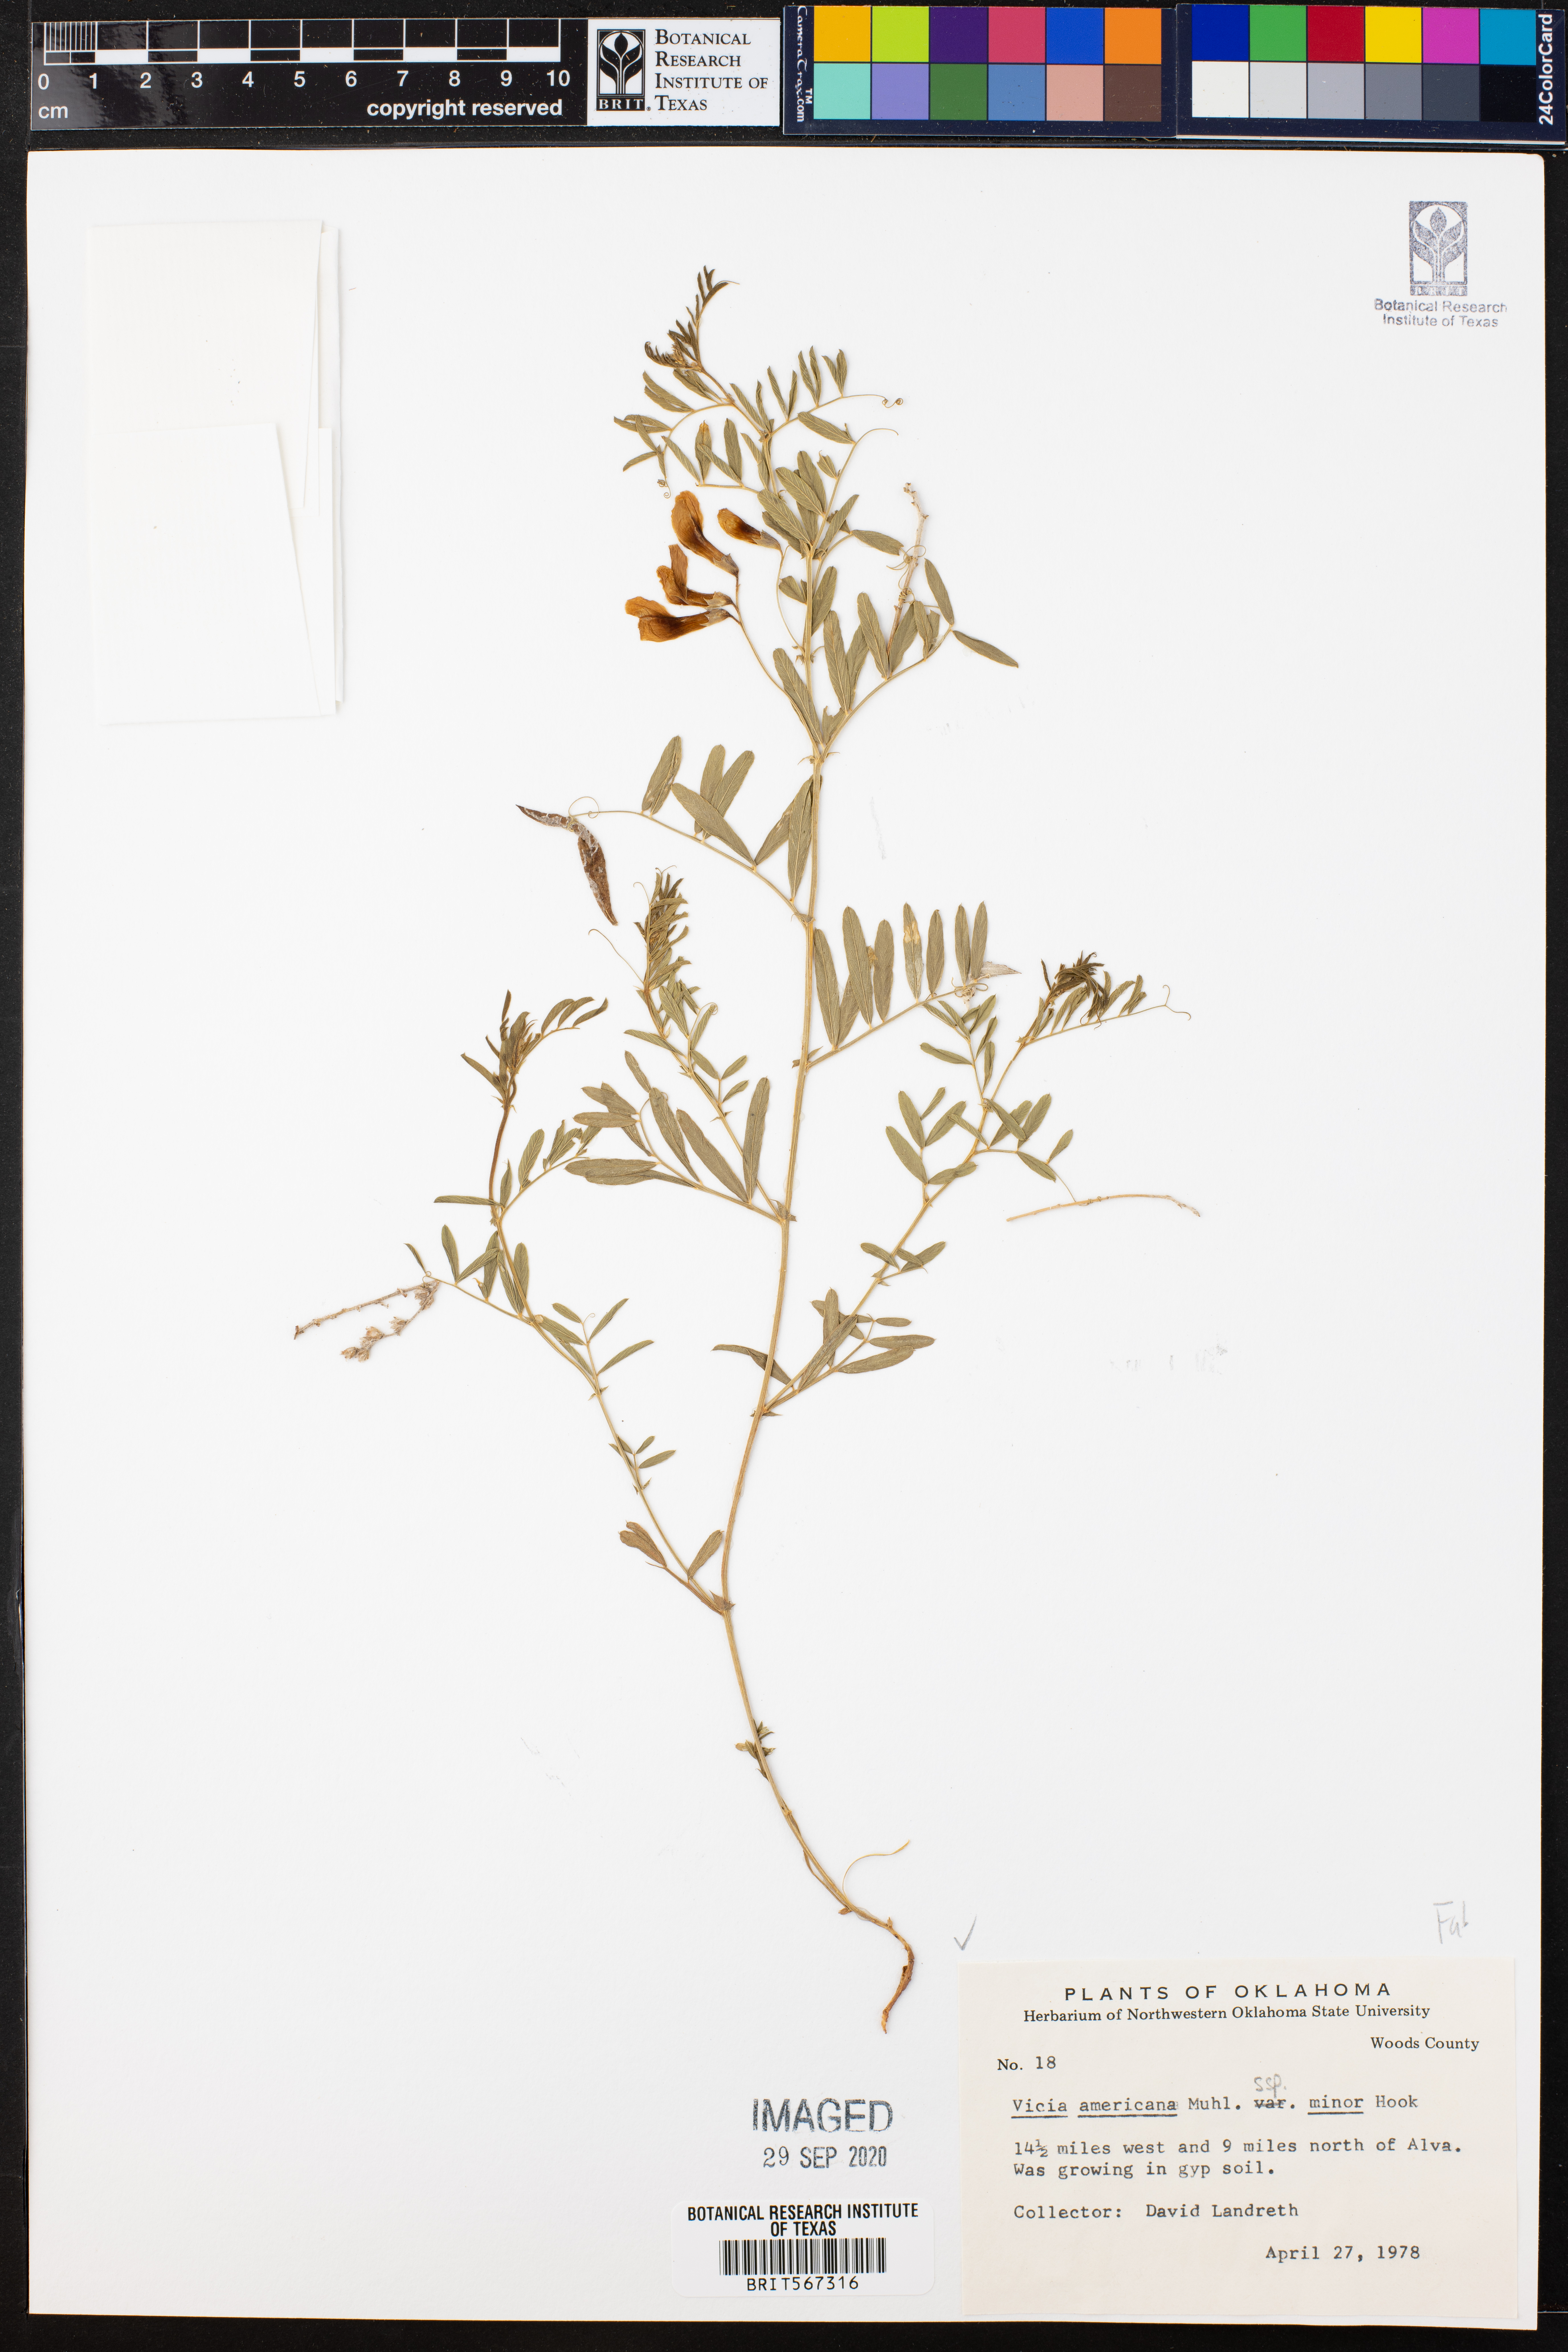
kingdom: Plantae
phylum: Tracheophyta
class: Magnoliopsida
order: Fabales
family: Fabaceae
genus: Vicia
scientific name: Vicia americana
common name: American vetch
